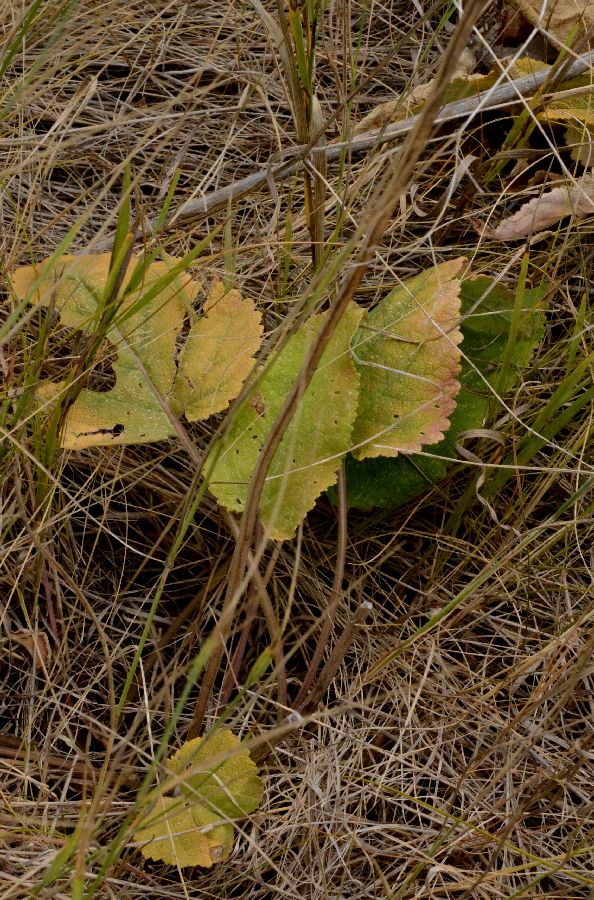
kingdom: Plantae
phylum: Tracheophyta
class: Magnoliopsida
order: Lamiales
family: Lamiaceae
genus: Salvia
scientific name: Salvia pratensis
